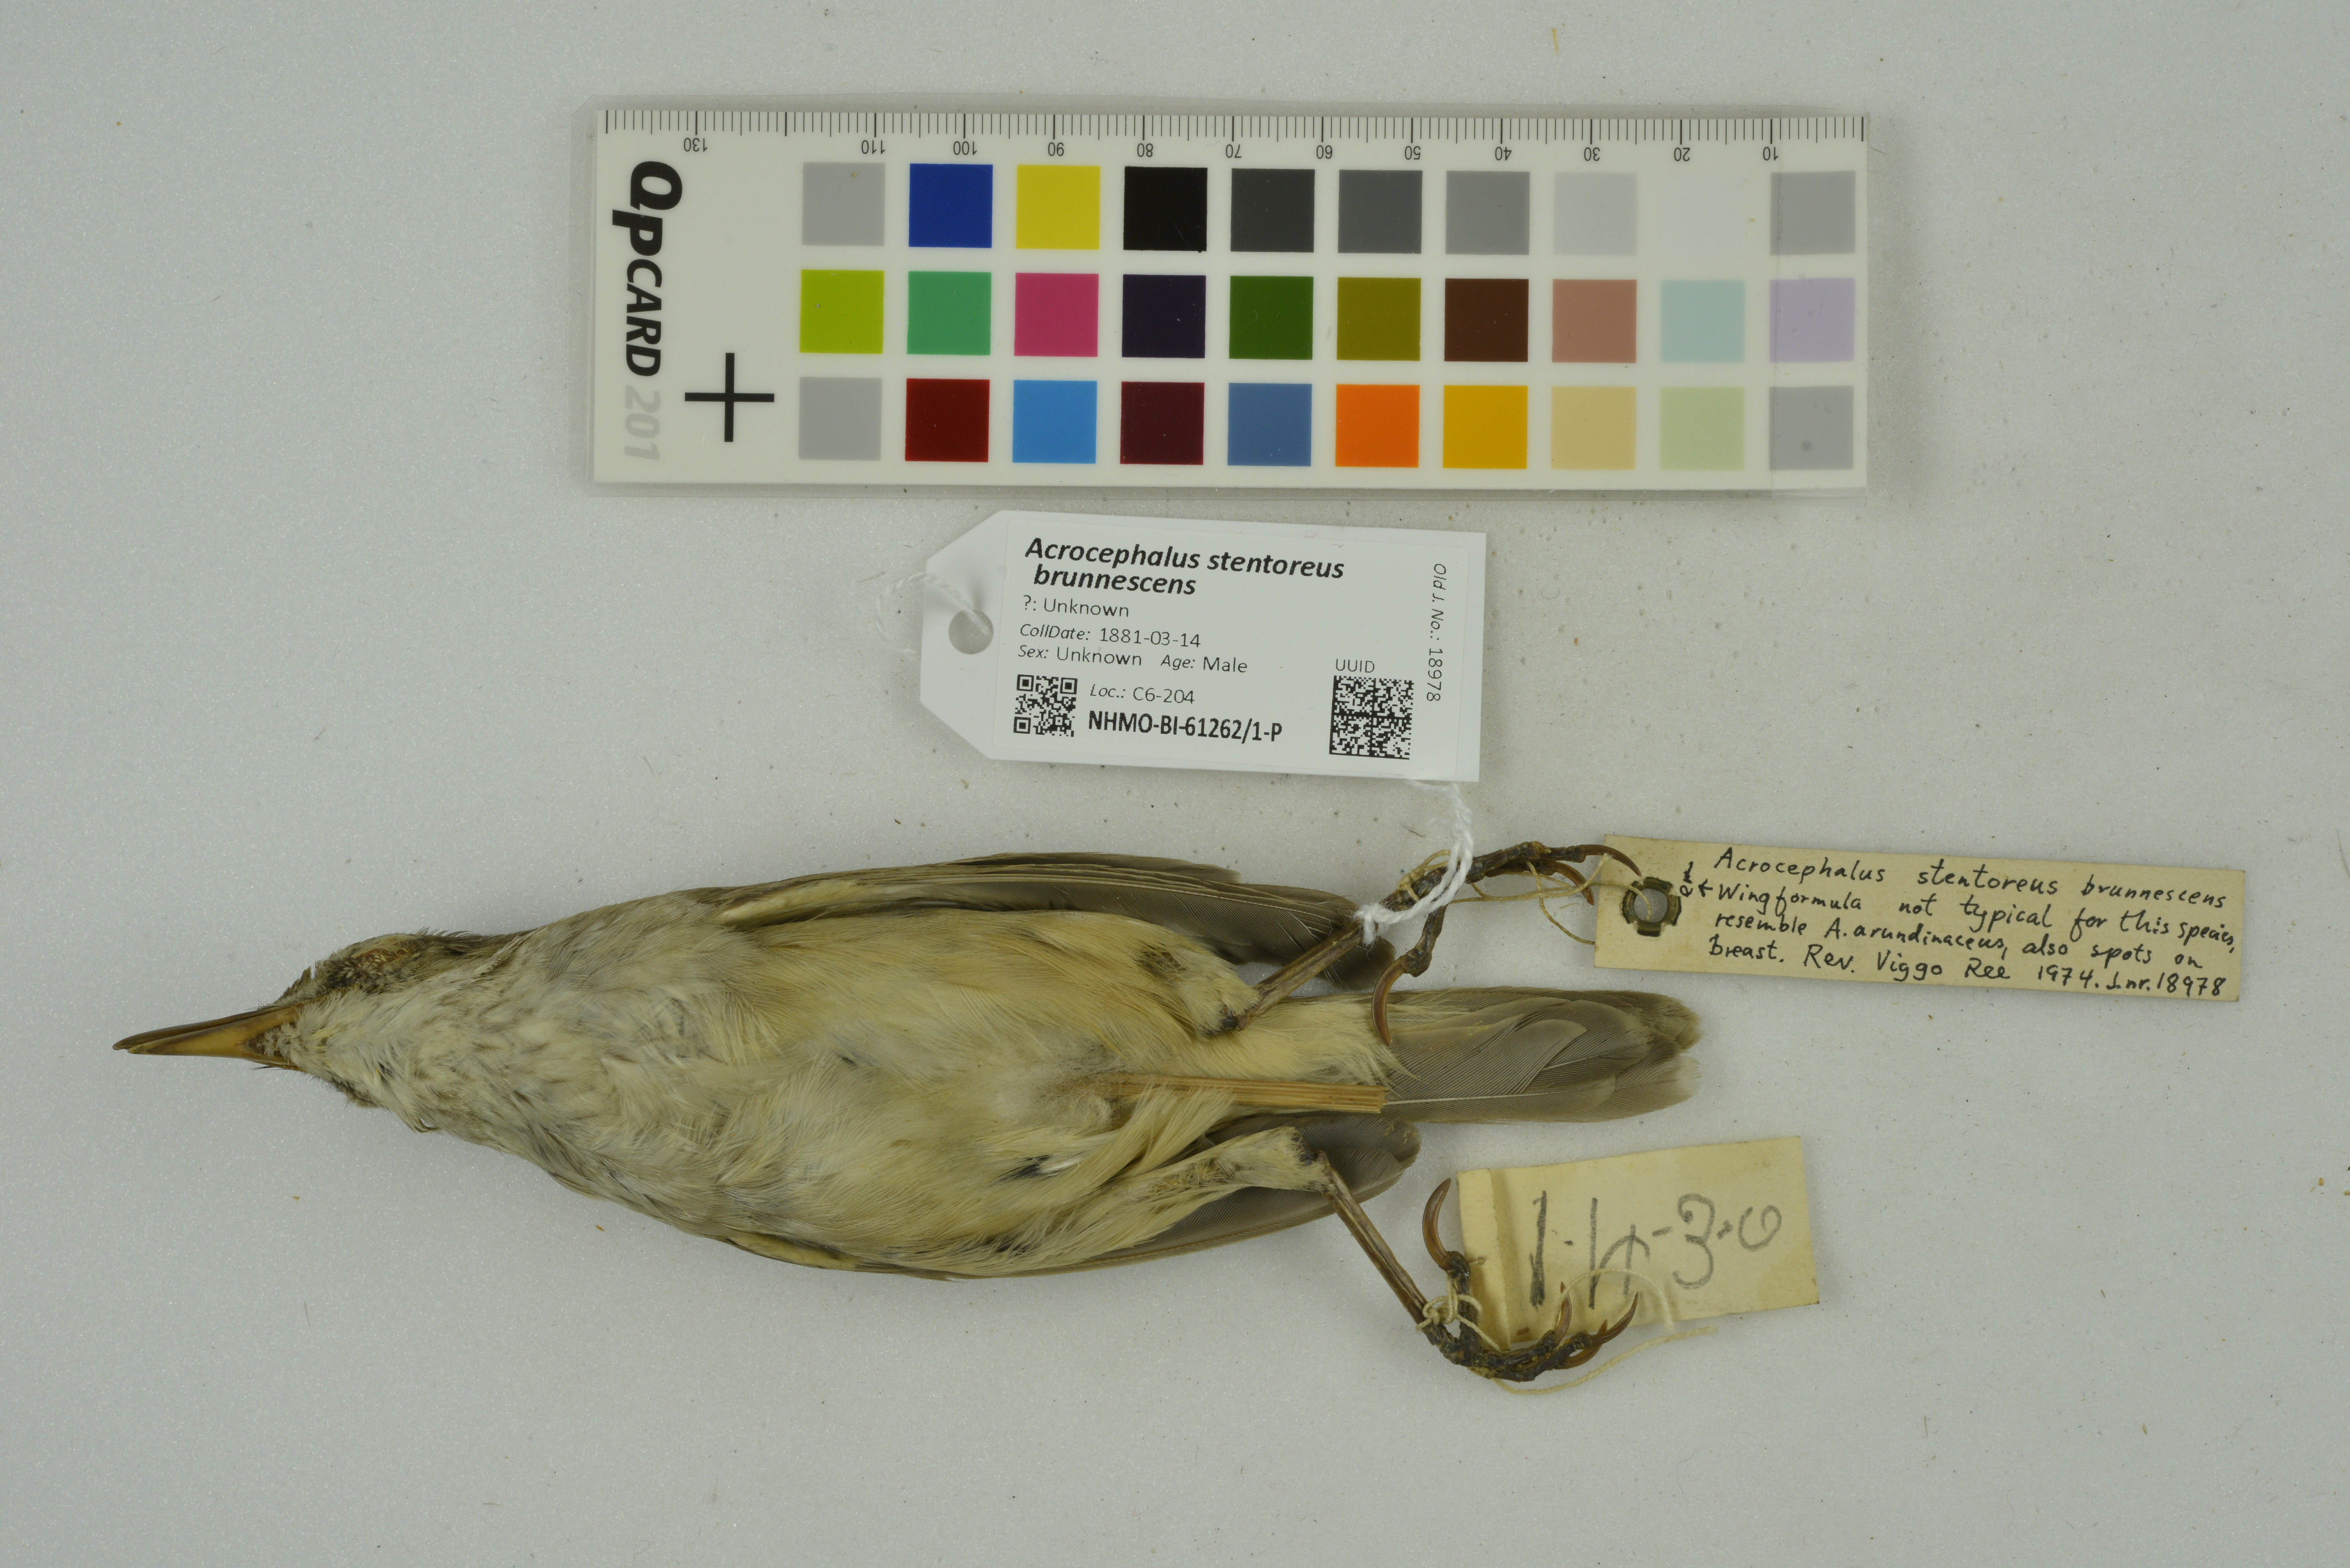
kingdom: Animalia
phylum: Chordata
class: Aves
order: Passeriformes
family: Acrocephalidae
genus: Acrocephalus
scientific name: Acrocephalus stentoreus
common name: Clamorous reed warbler
